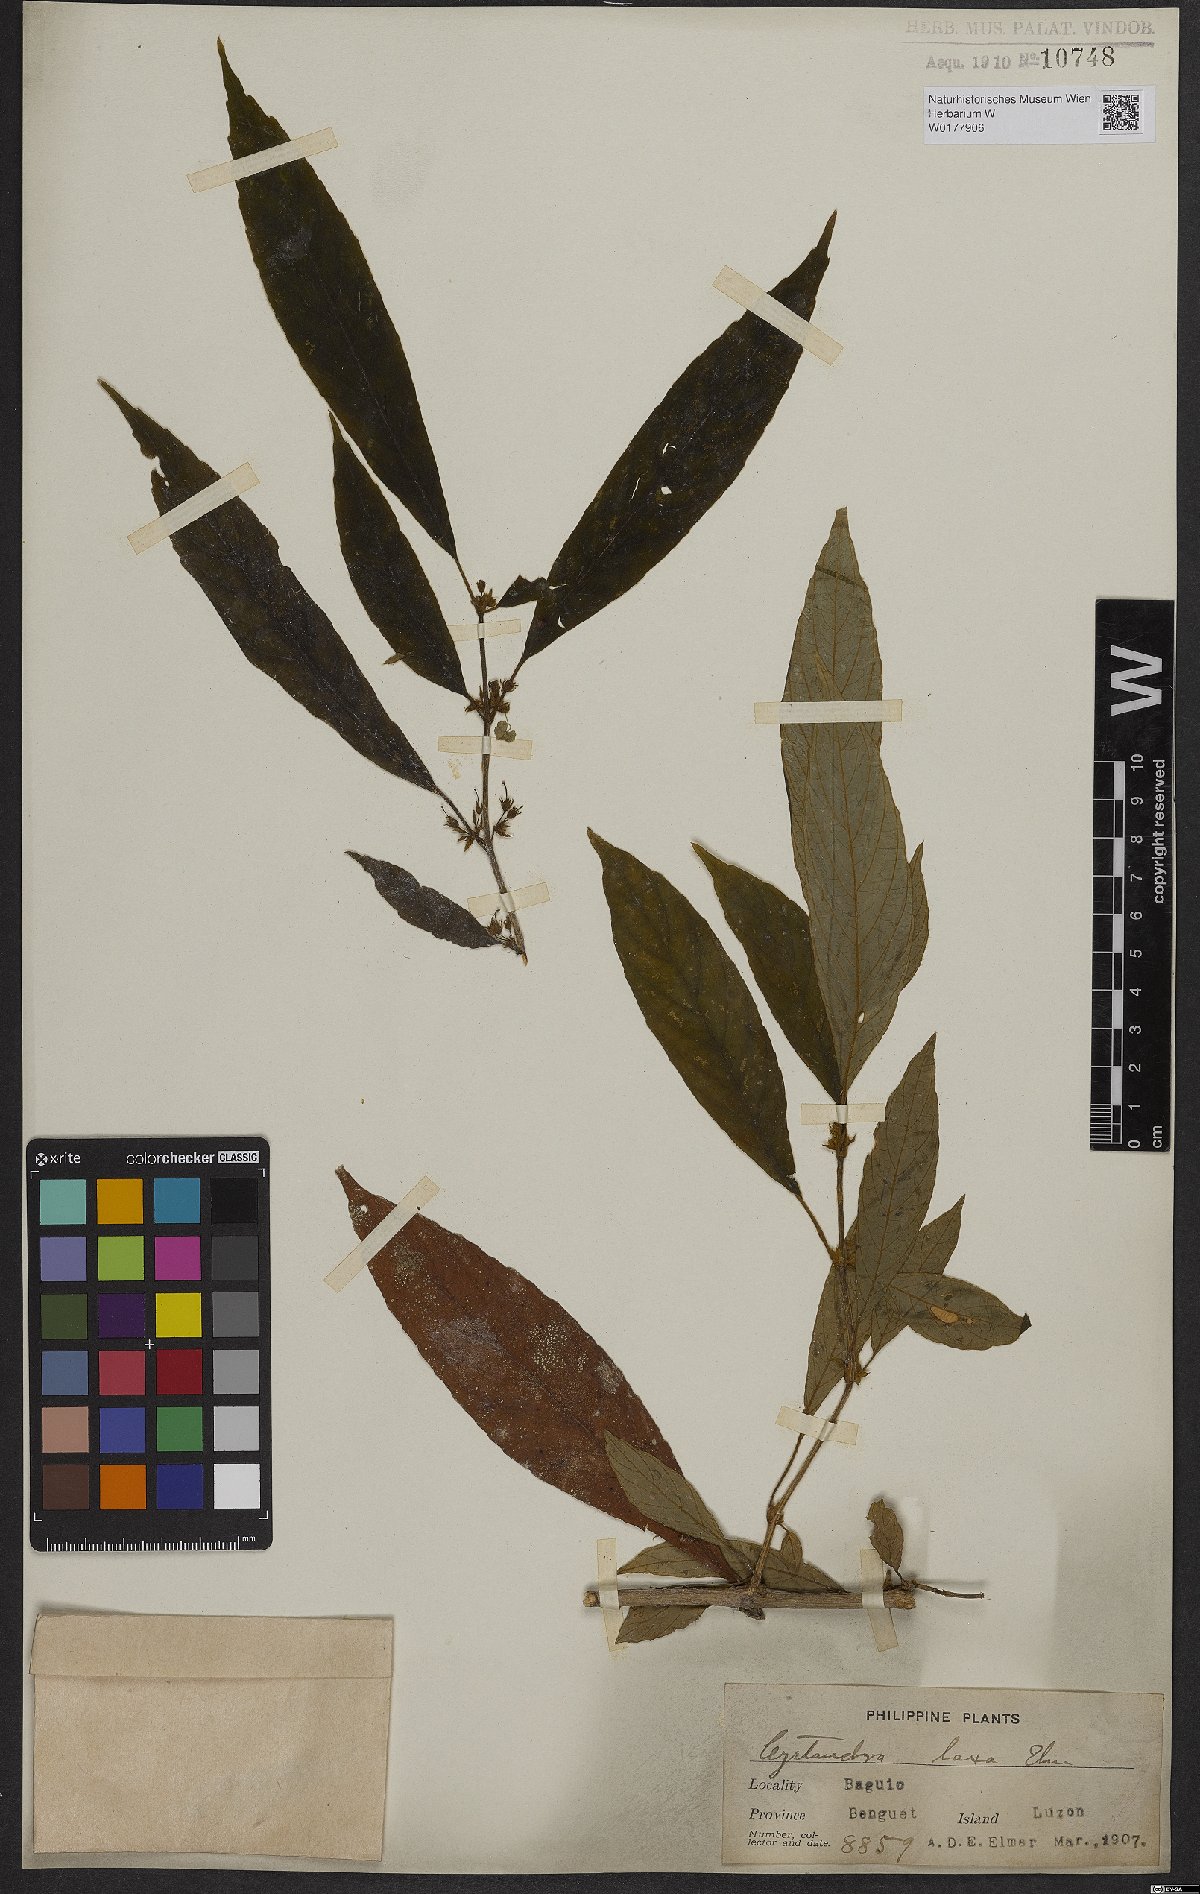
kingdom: Plantae
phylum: Tracheophyta
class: Magnoliopsida
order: Lamiales
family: Gesneriaceae
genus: Cyrtandra
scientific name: Cyrtandra
